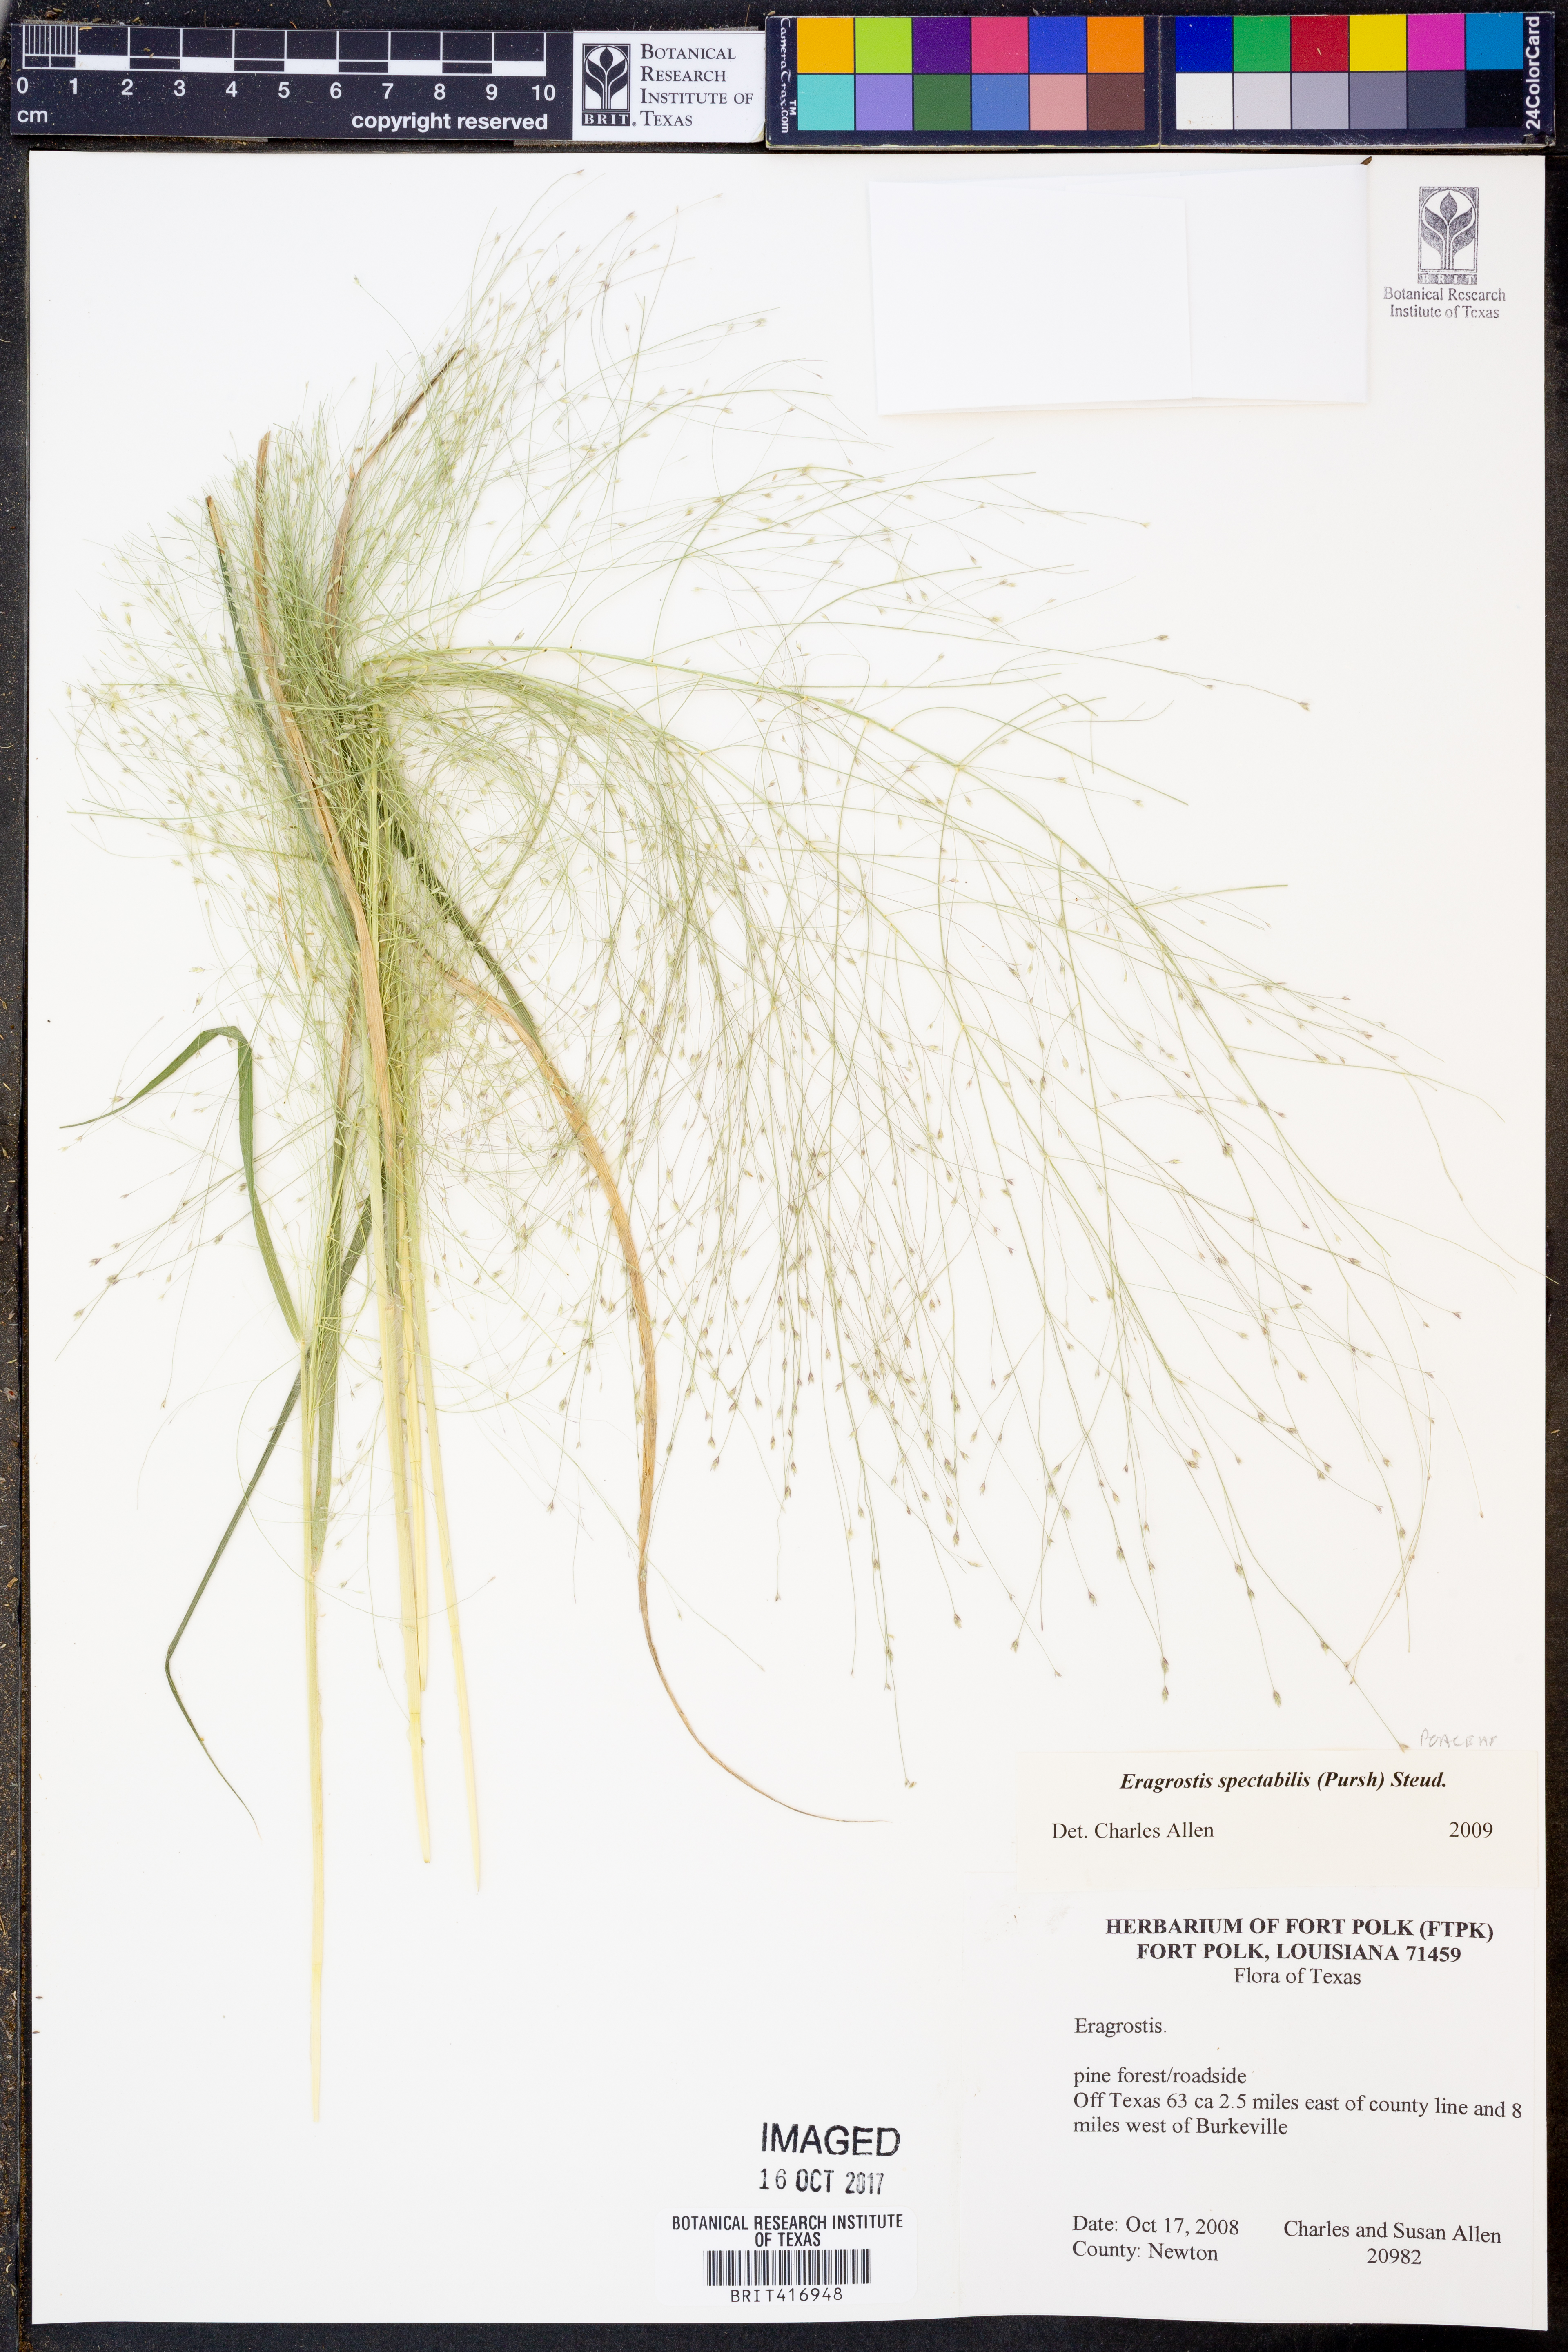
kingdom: Plantae
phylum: Tracheophyta
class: Liliopsida
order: Poales
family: Poaceae
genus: Eragrostis
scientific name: Eragrostis spectabilis
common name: Petticoat-climber
